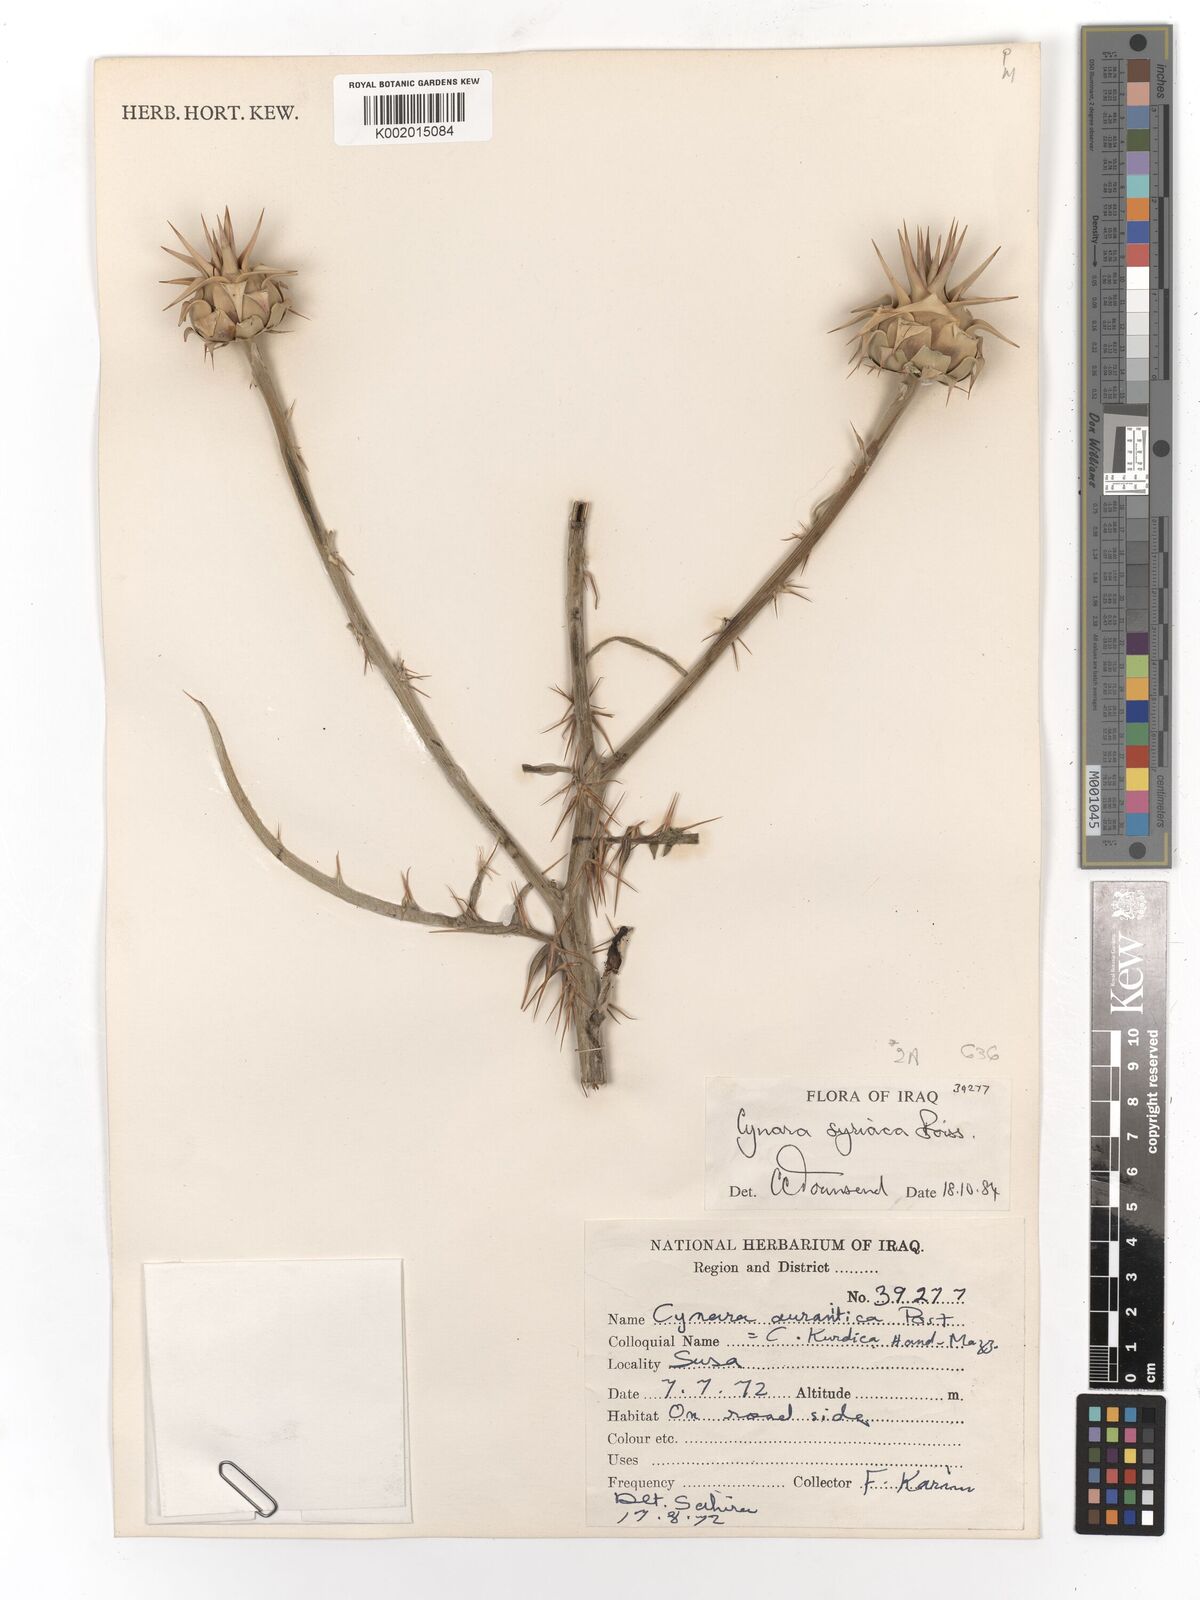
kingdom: Plantae
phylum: Tracheophyta
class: Magnoliopsida
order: Asterales
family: Asteraceae
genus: Cynara
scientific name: Cynara syriaca
